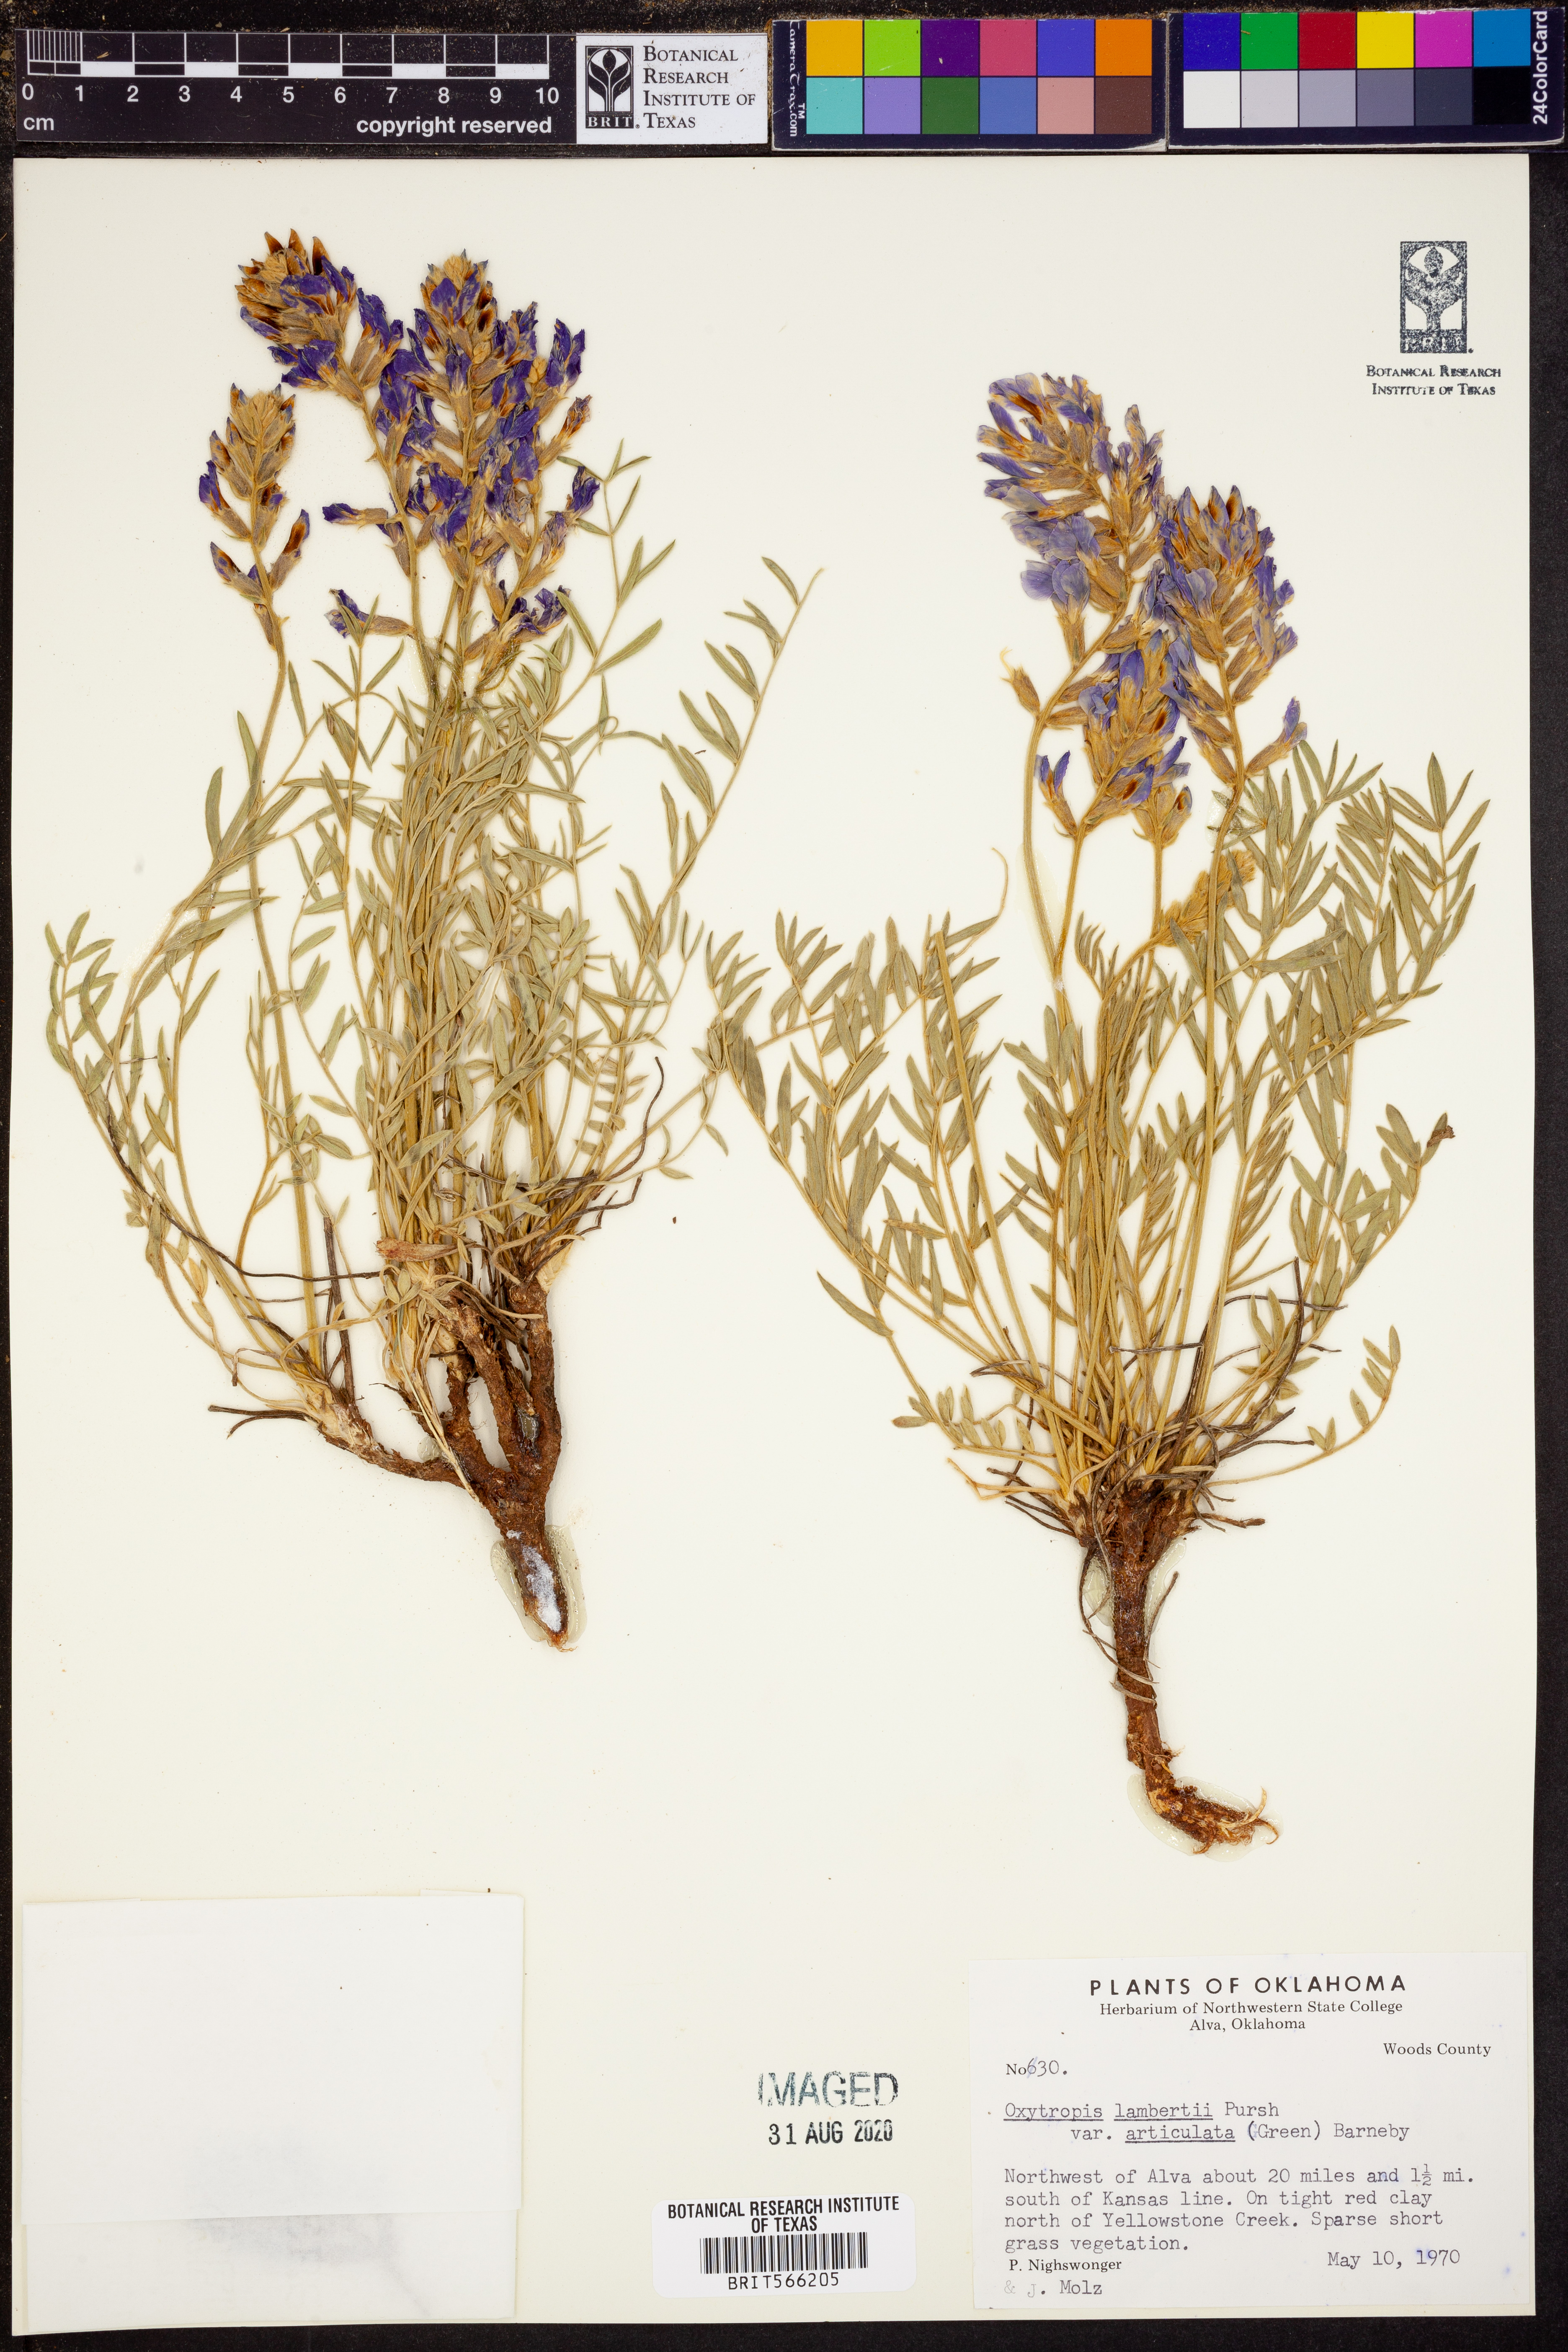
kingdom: Plantae
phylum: Tracheophyta
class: Magnoliopsida
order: Fabales
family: Fabaceae
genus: Oxytropis
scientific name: Oxytropis lambertii
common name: Purple locoweed
